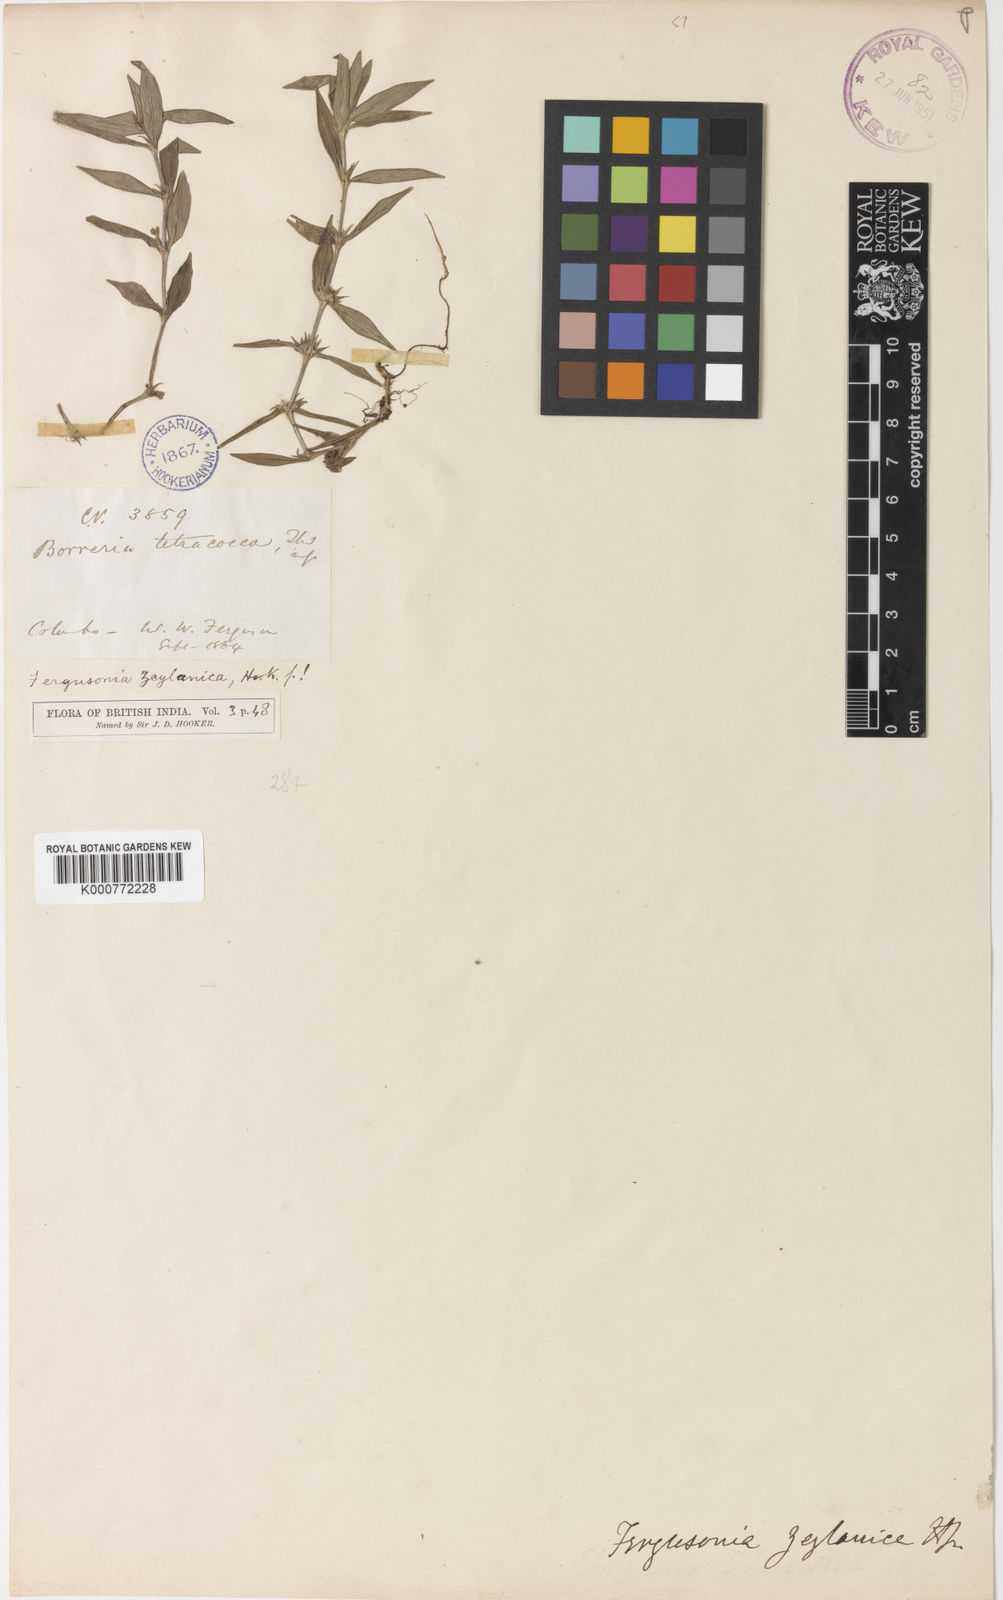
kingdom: Plantae
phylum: Tracheophyta
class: Magnoliopsida
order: Gentianales
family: Rubiaceae
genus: Fergusonia
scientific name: Fergusonia zeylanica
